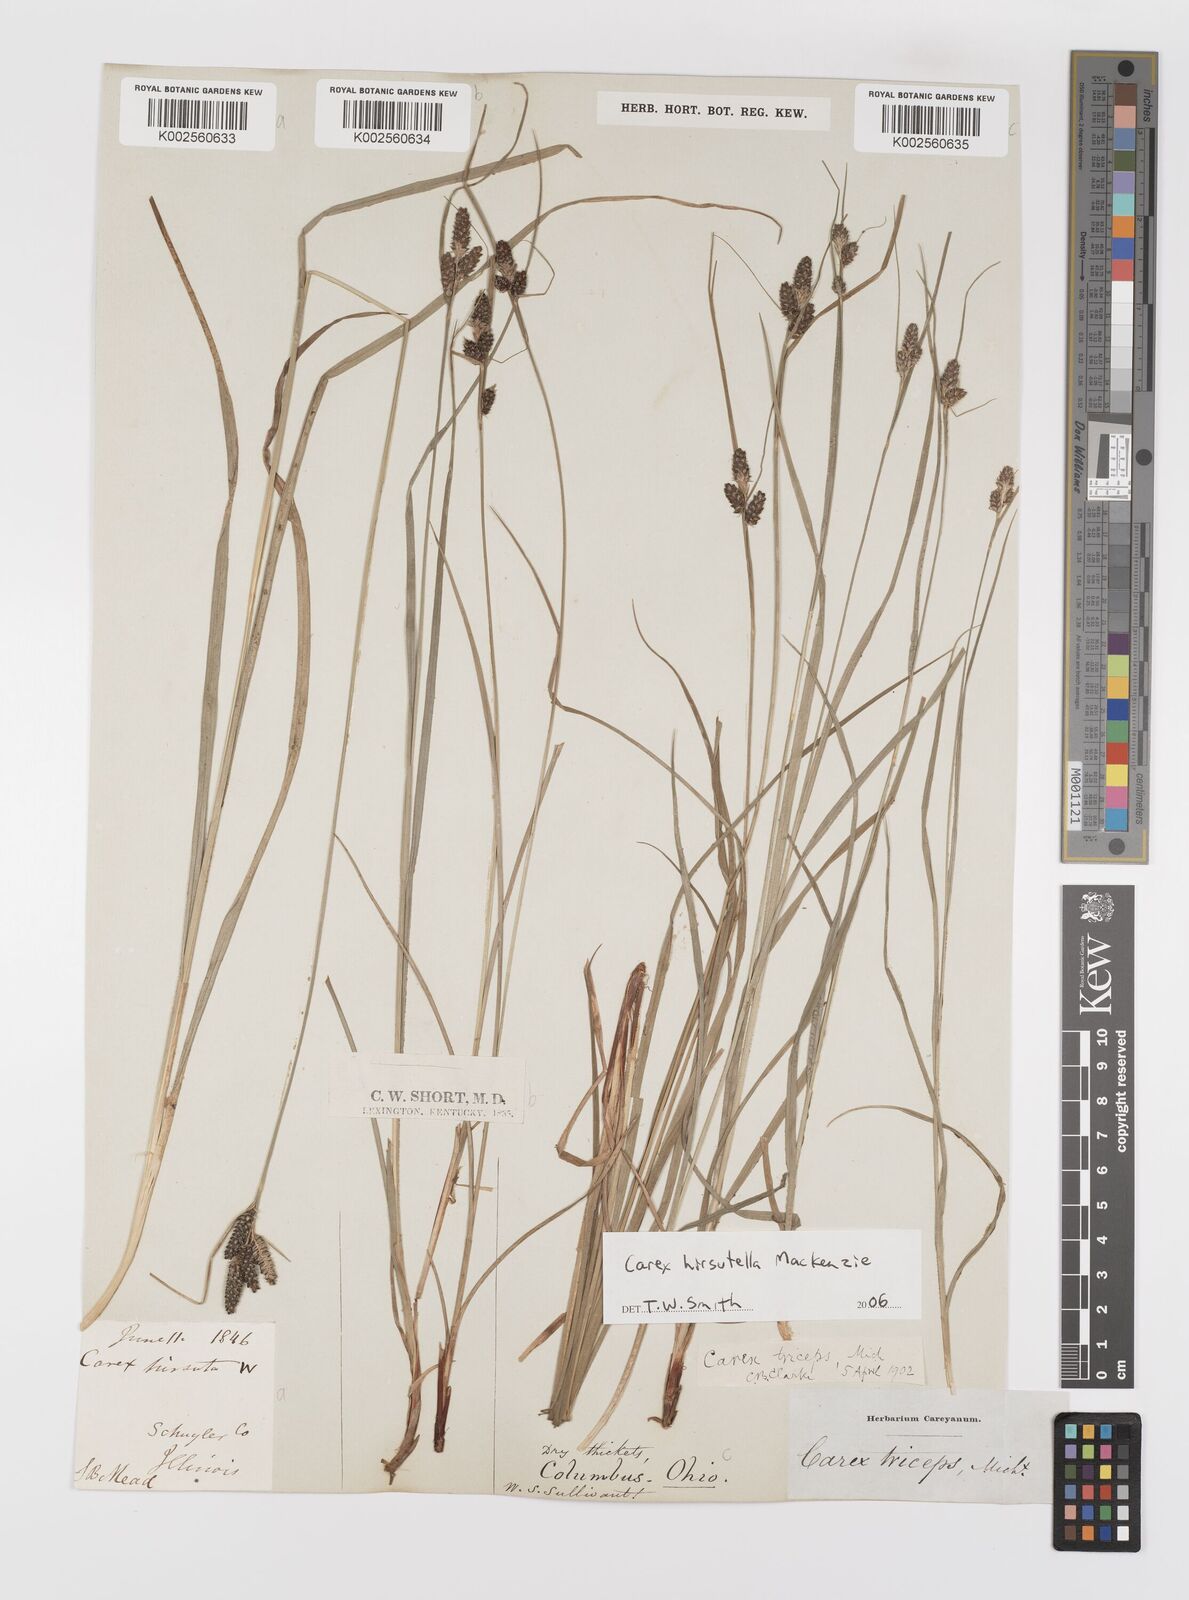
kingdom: Plantae
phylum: Tracheophyta
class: Liliopsida
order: Poales
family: Cyperaceae
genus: Carex
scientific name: Carex hirsutella
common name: Fuzzy wuzzy sedge
